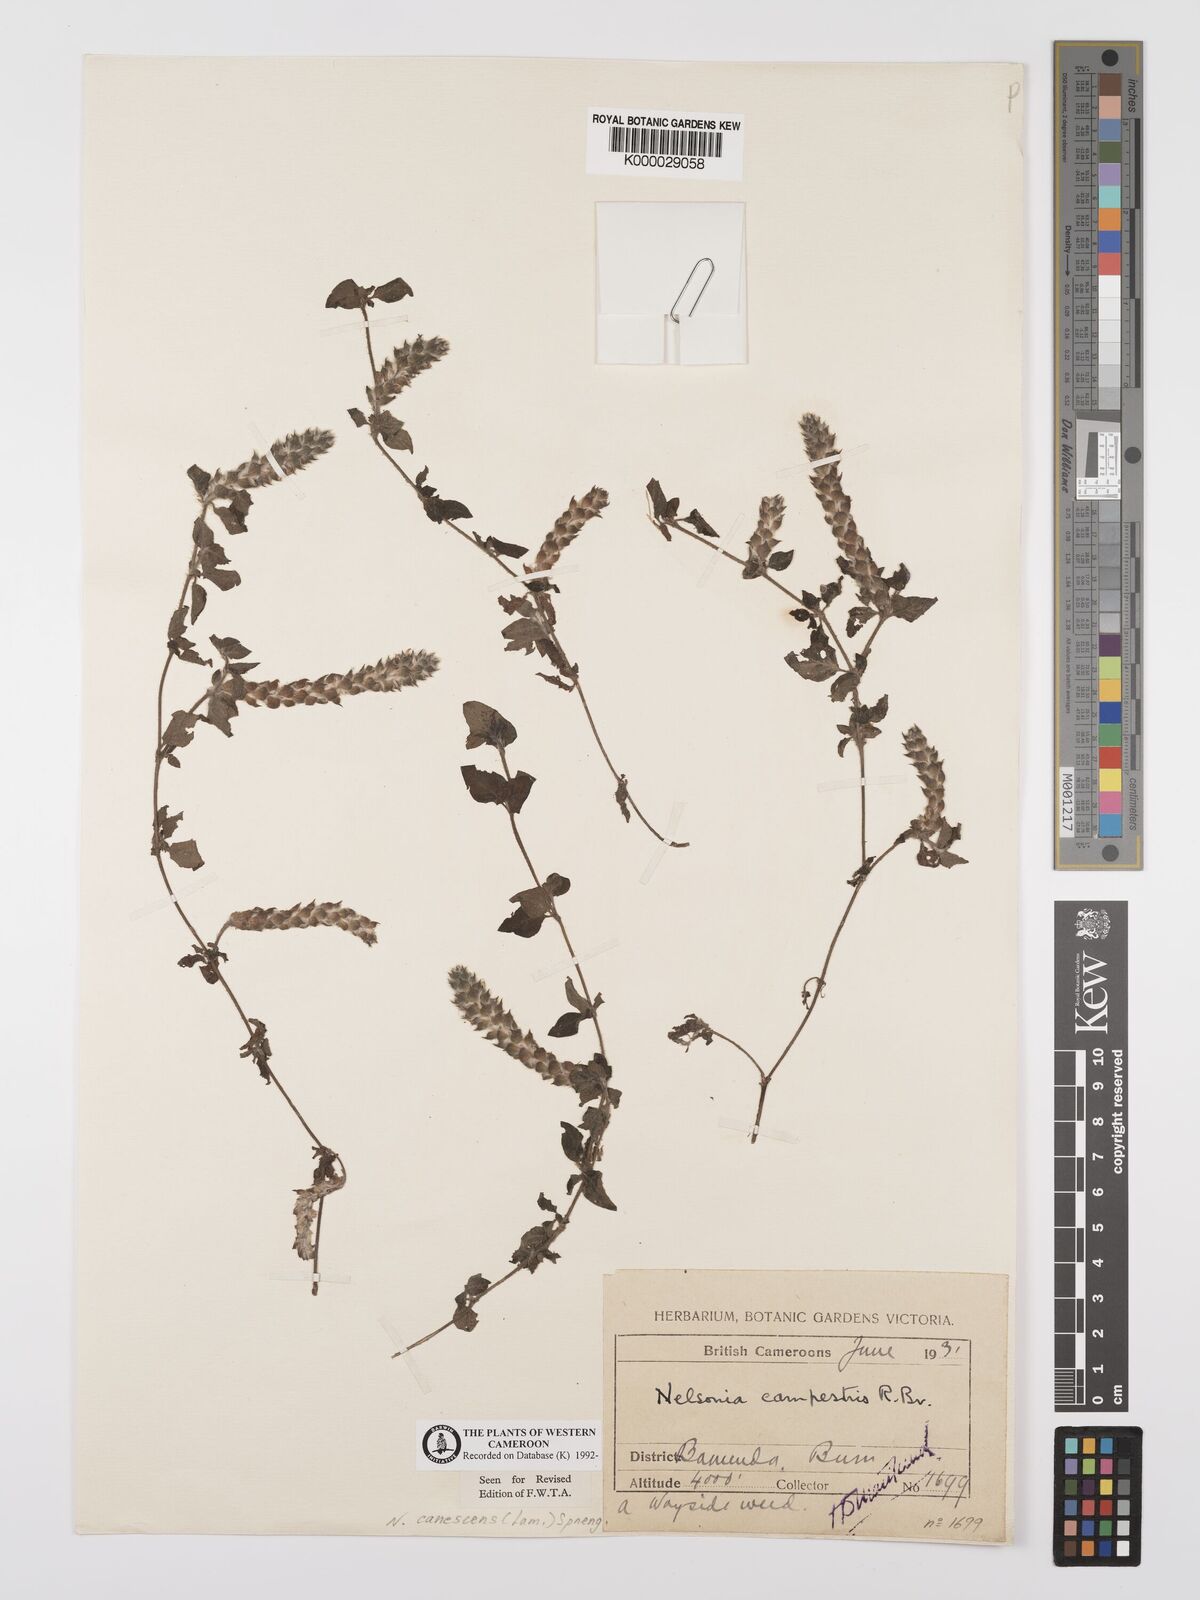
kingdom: Plantae
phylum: Tracheophyta
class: Magnoliopsida
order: Lamiales
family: Acanthaceae
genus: Nelsonia
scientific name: Nelsonia canescens
